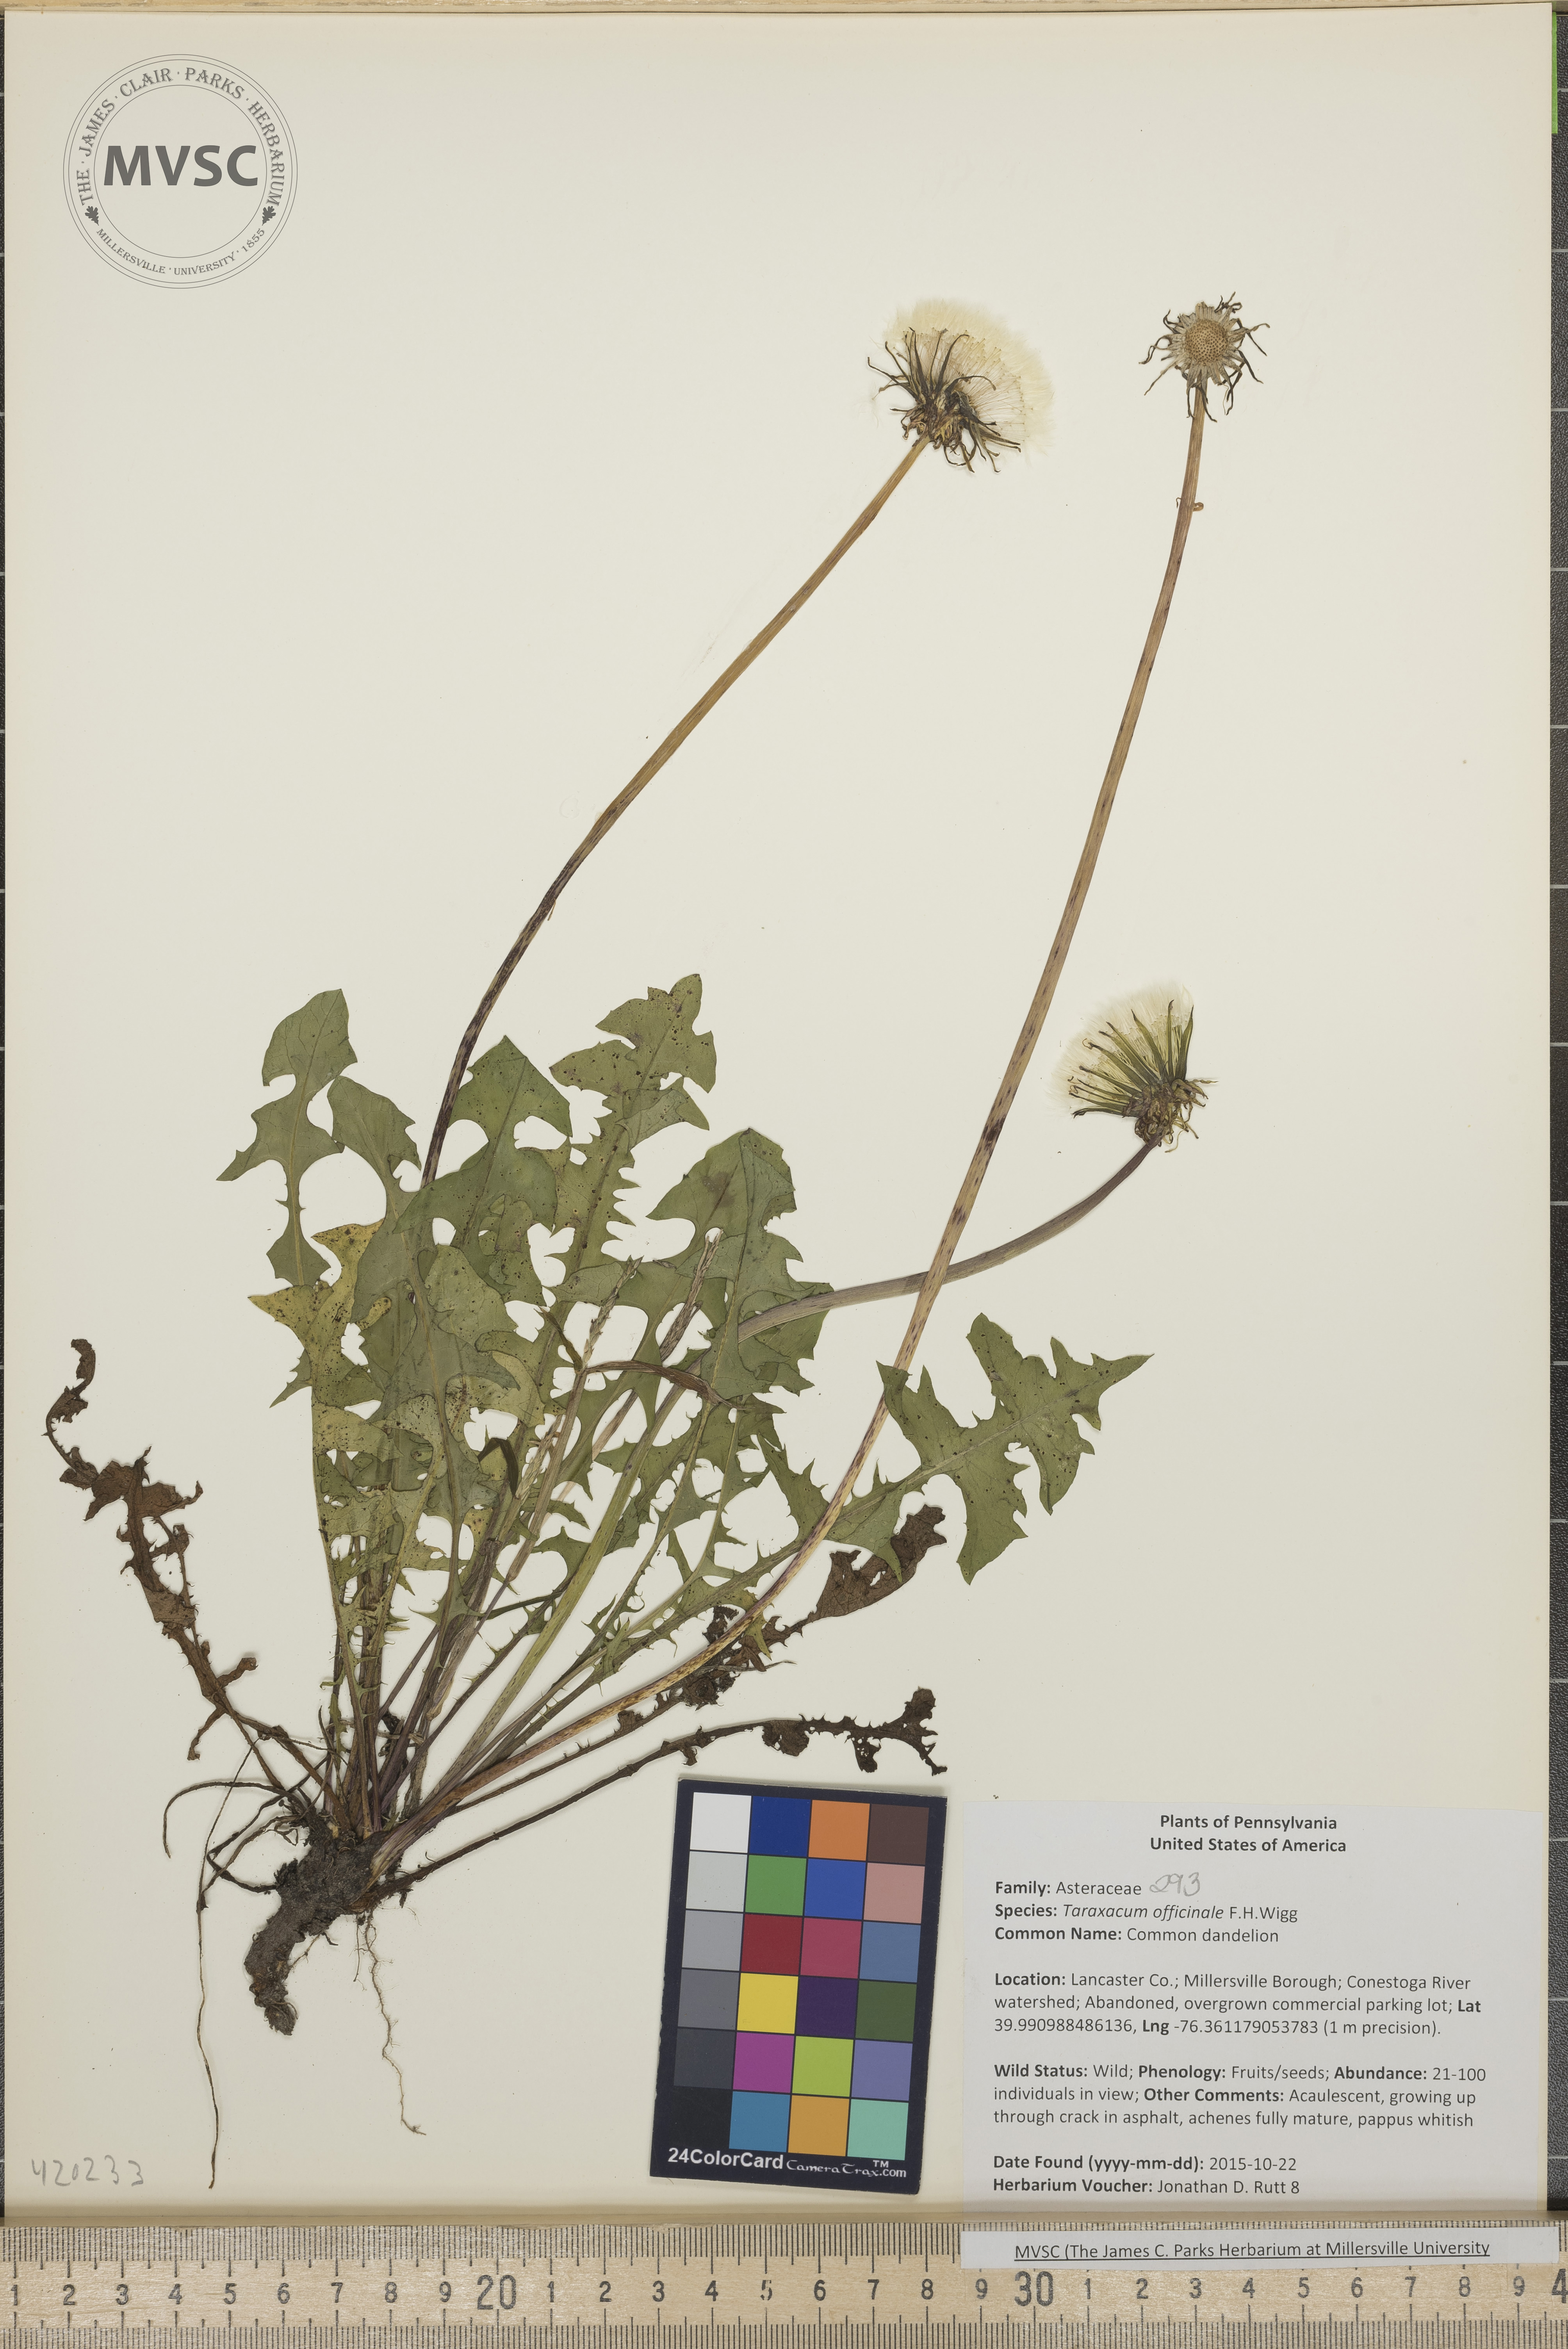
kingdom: Plantae
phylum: Tracheophyta
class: Magnoliopsida
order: Asterales
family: Asteraceae
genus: Taraxacum
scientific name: Taraxacum officinale
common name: Common dandelion
